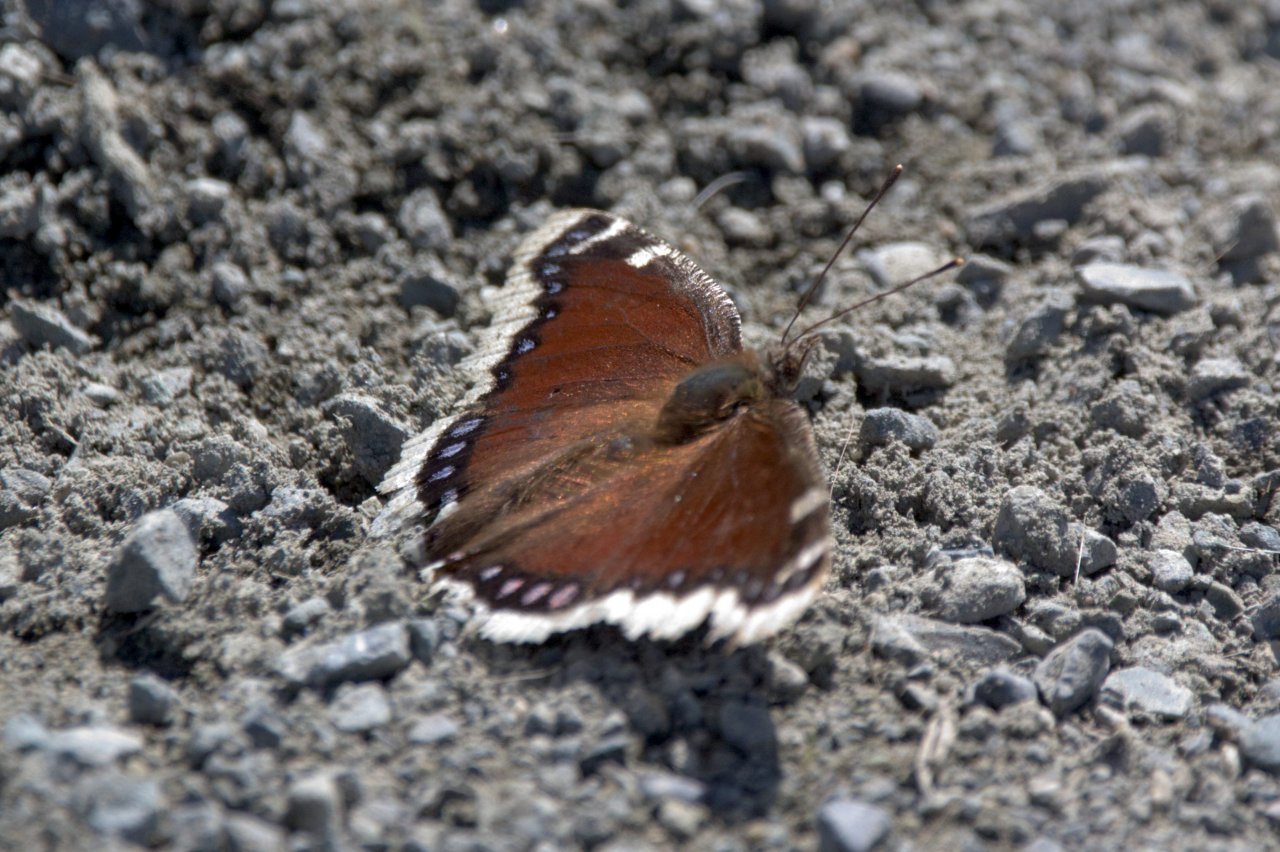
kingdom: Animalia
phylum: Arthropoda
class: Insecta
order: Lepidoptera
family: Nymphalidae
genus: Nymphalis
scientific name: Nymphalis antiopa
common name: Mourning Cloak
